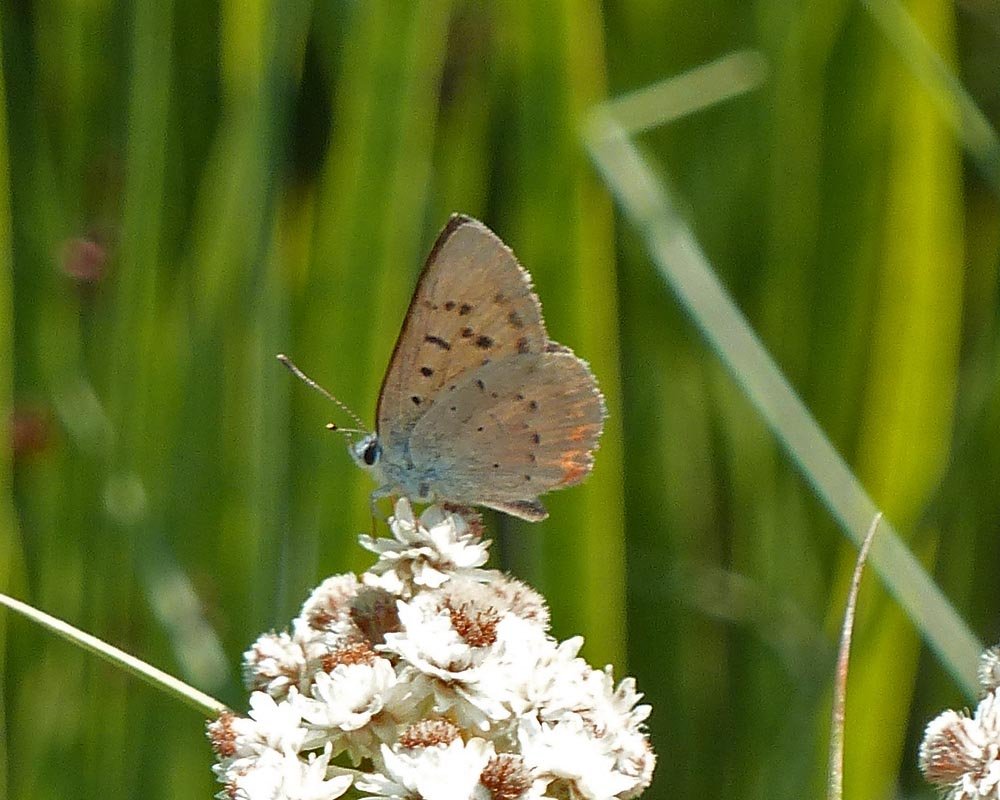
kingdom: Animalia
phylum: Arthropoda
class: Insecta
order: Lepidoptera
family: Sesiidae
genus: Sesia
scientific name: Sesia Lycaena helloides
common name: Purplish Copper
